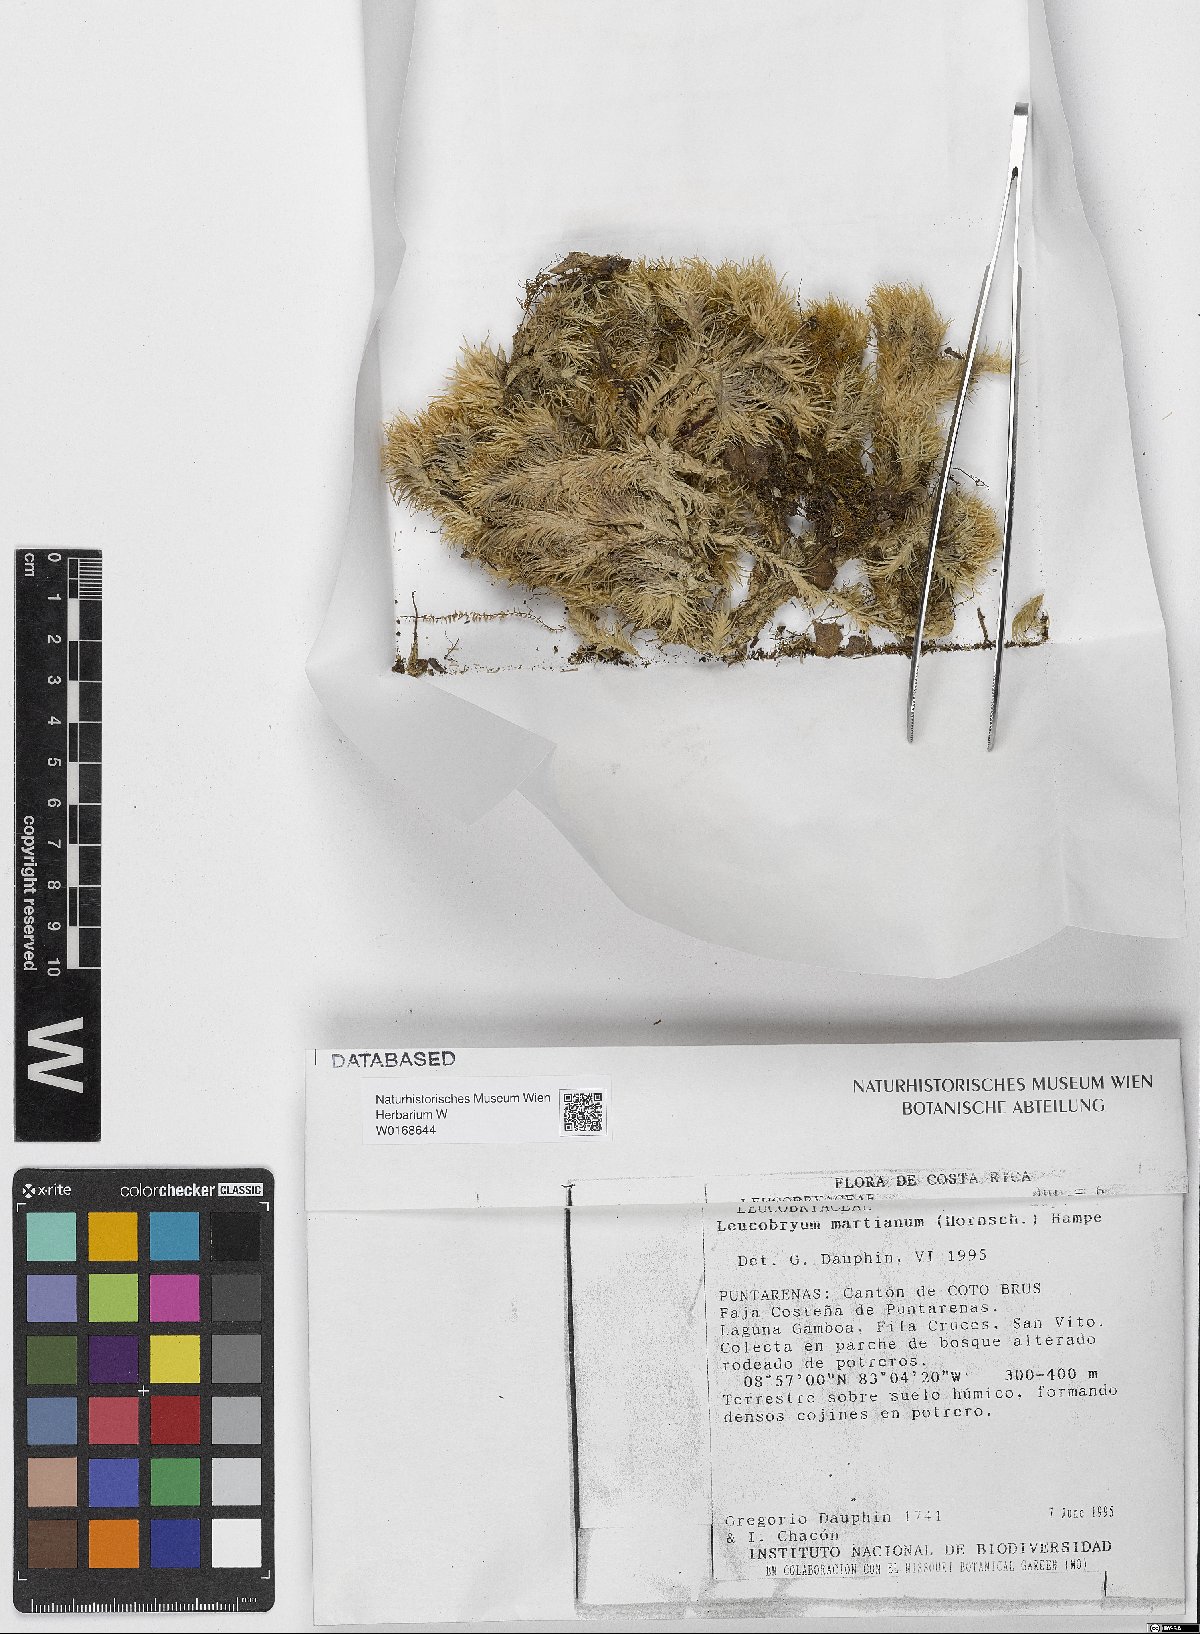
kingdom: Plantae
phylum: Bryophyta
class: Bryopsida
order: Dicranales
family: Leucobryaceae
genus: Leucobryum
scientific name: Leucobryum
